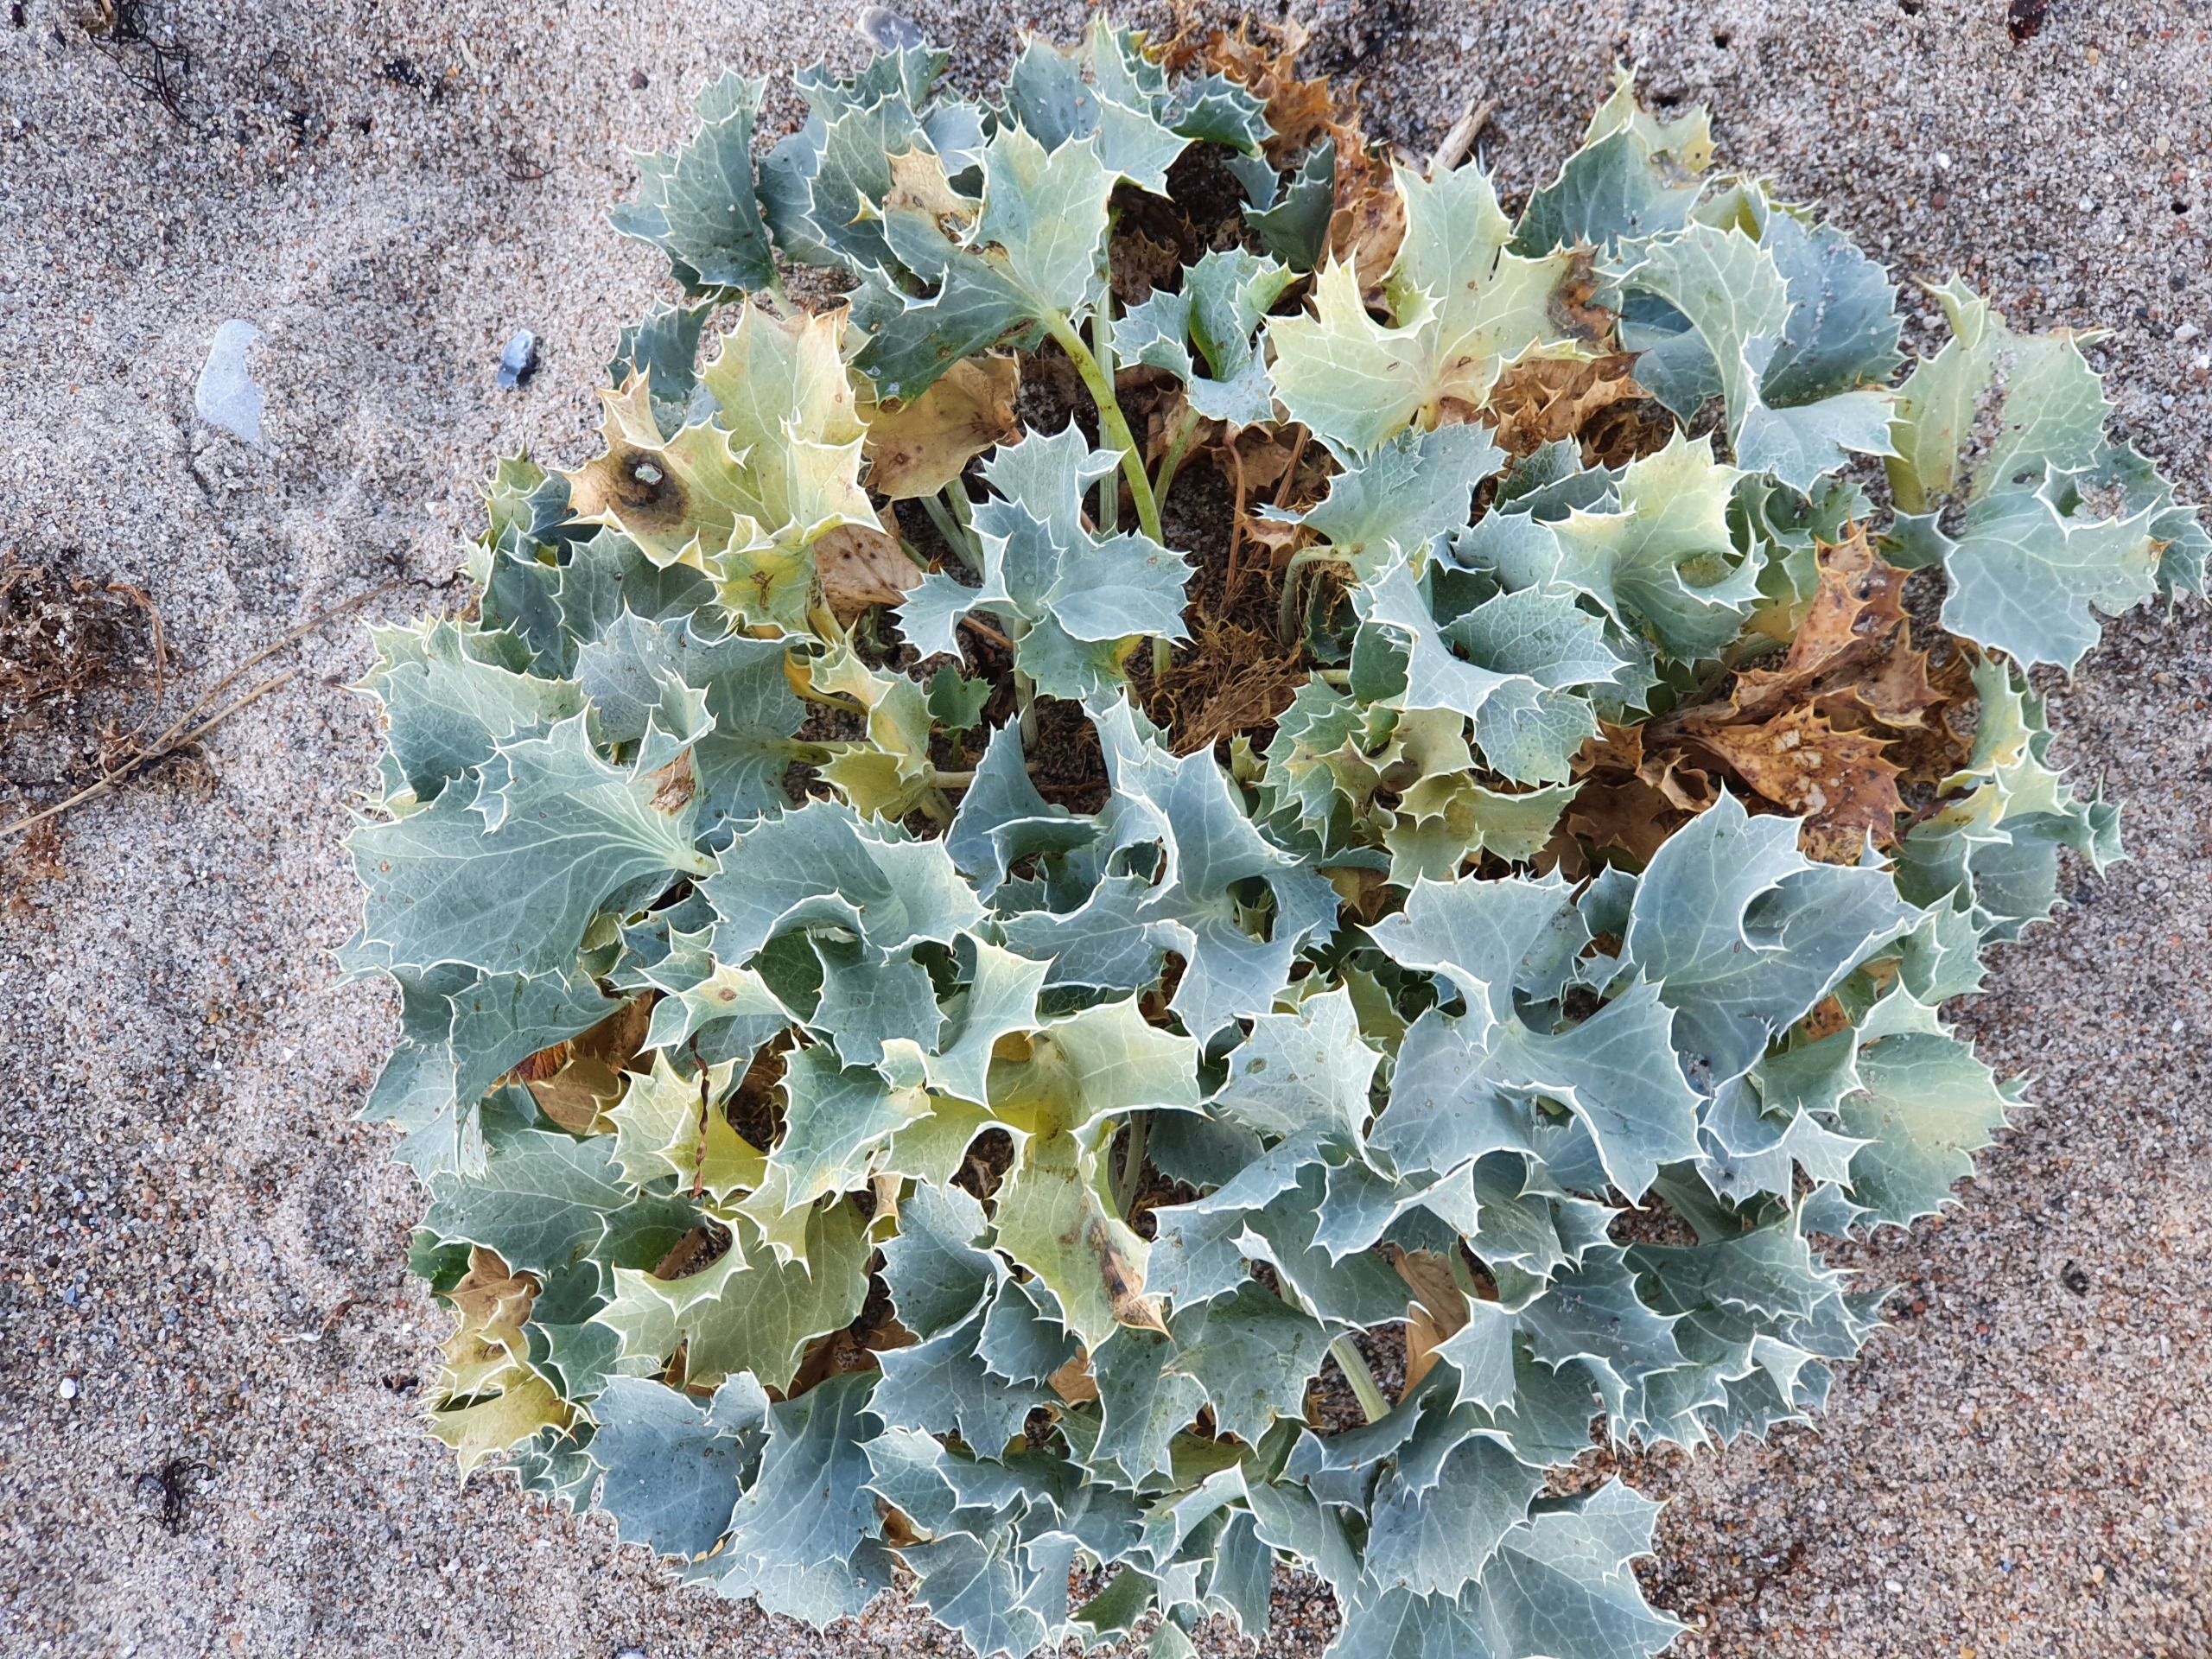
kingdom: Plantae
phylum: Tracheophyta
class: Magnoliopsida
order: Apiales
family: Apiaceae
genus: Eryngium
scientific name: Eryngium maritimum
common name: Strand-mandstro
